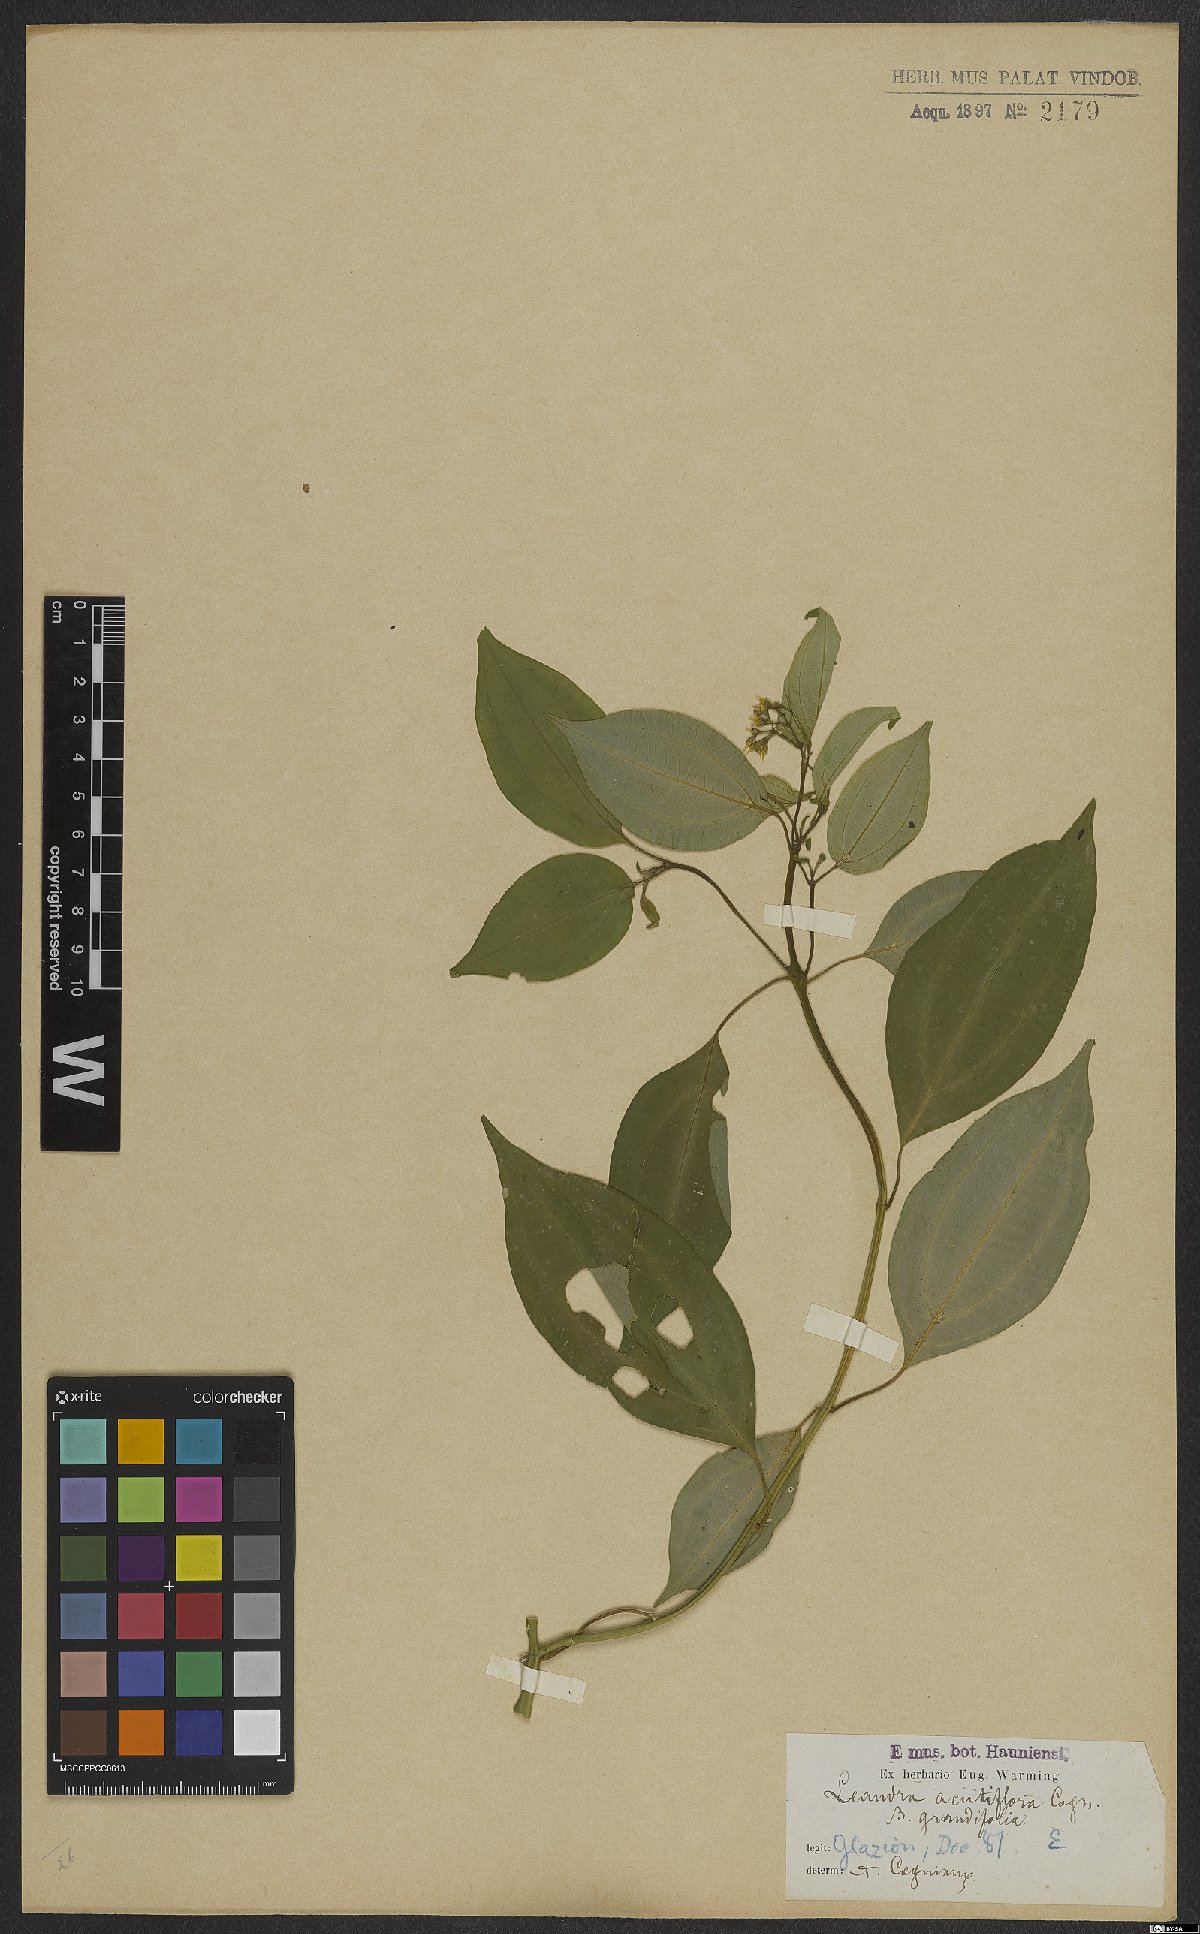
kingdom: Plantae
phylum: Tracheophyta
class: Magnoliopsida
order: Myrtales
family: Melastomataceae
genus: Miconia
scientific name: Miconia acutiflora
